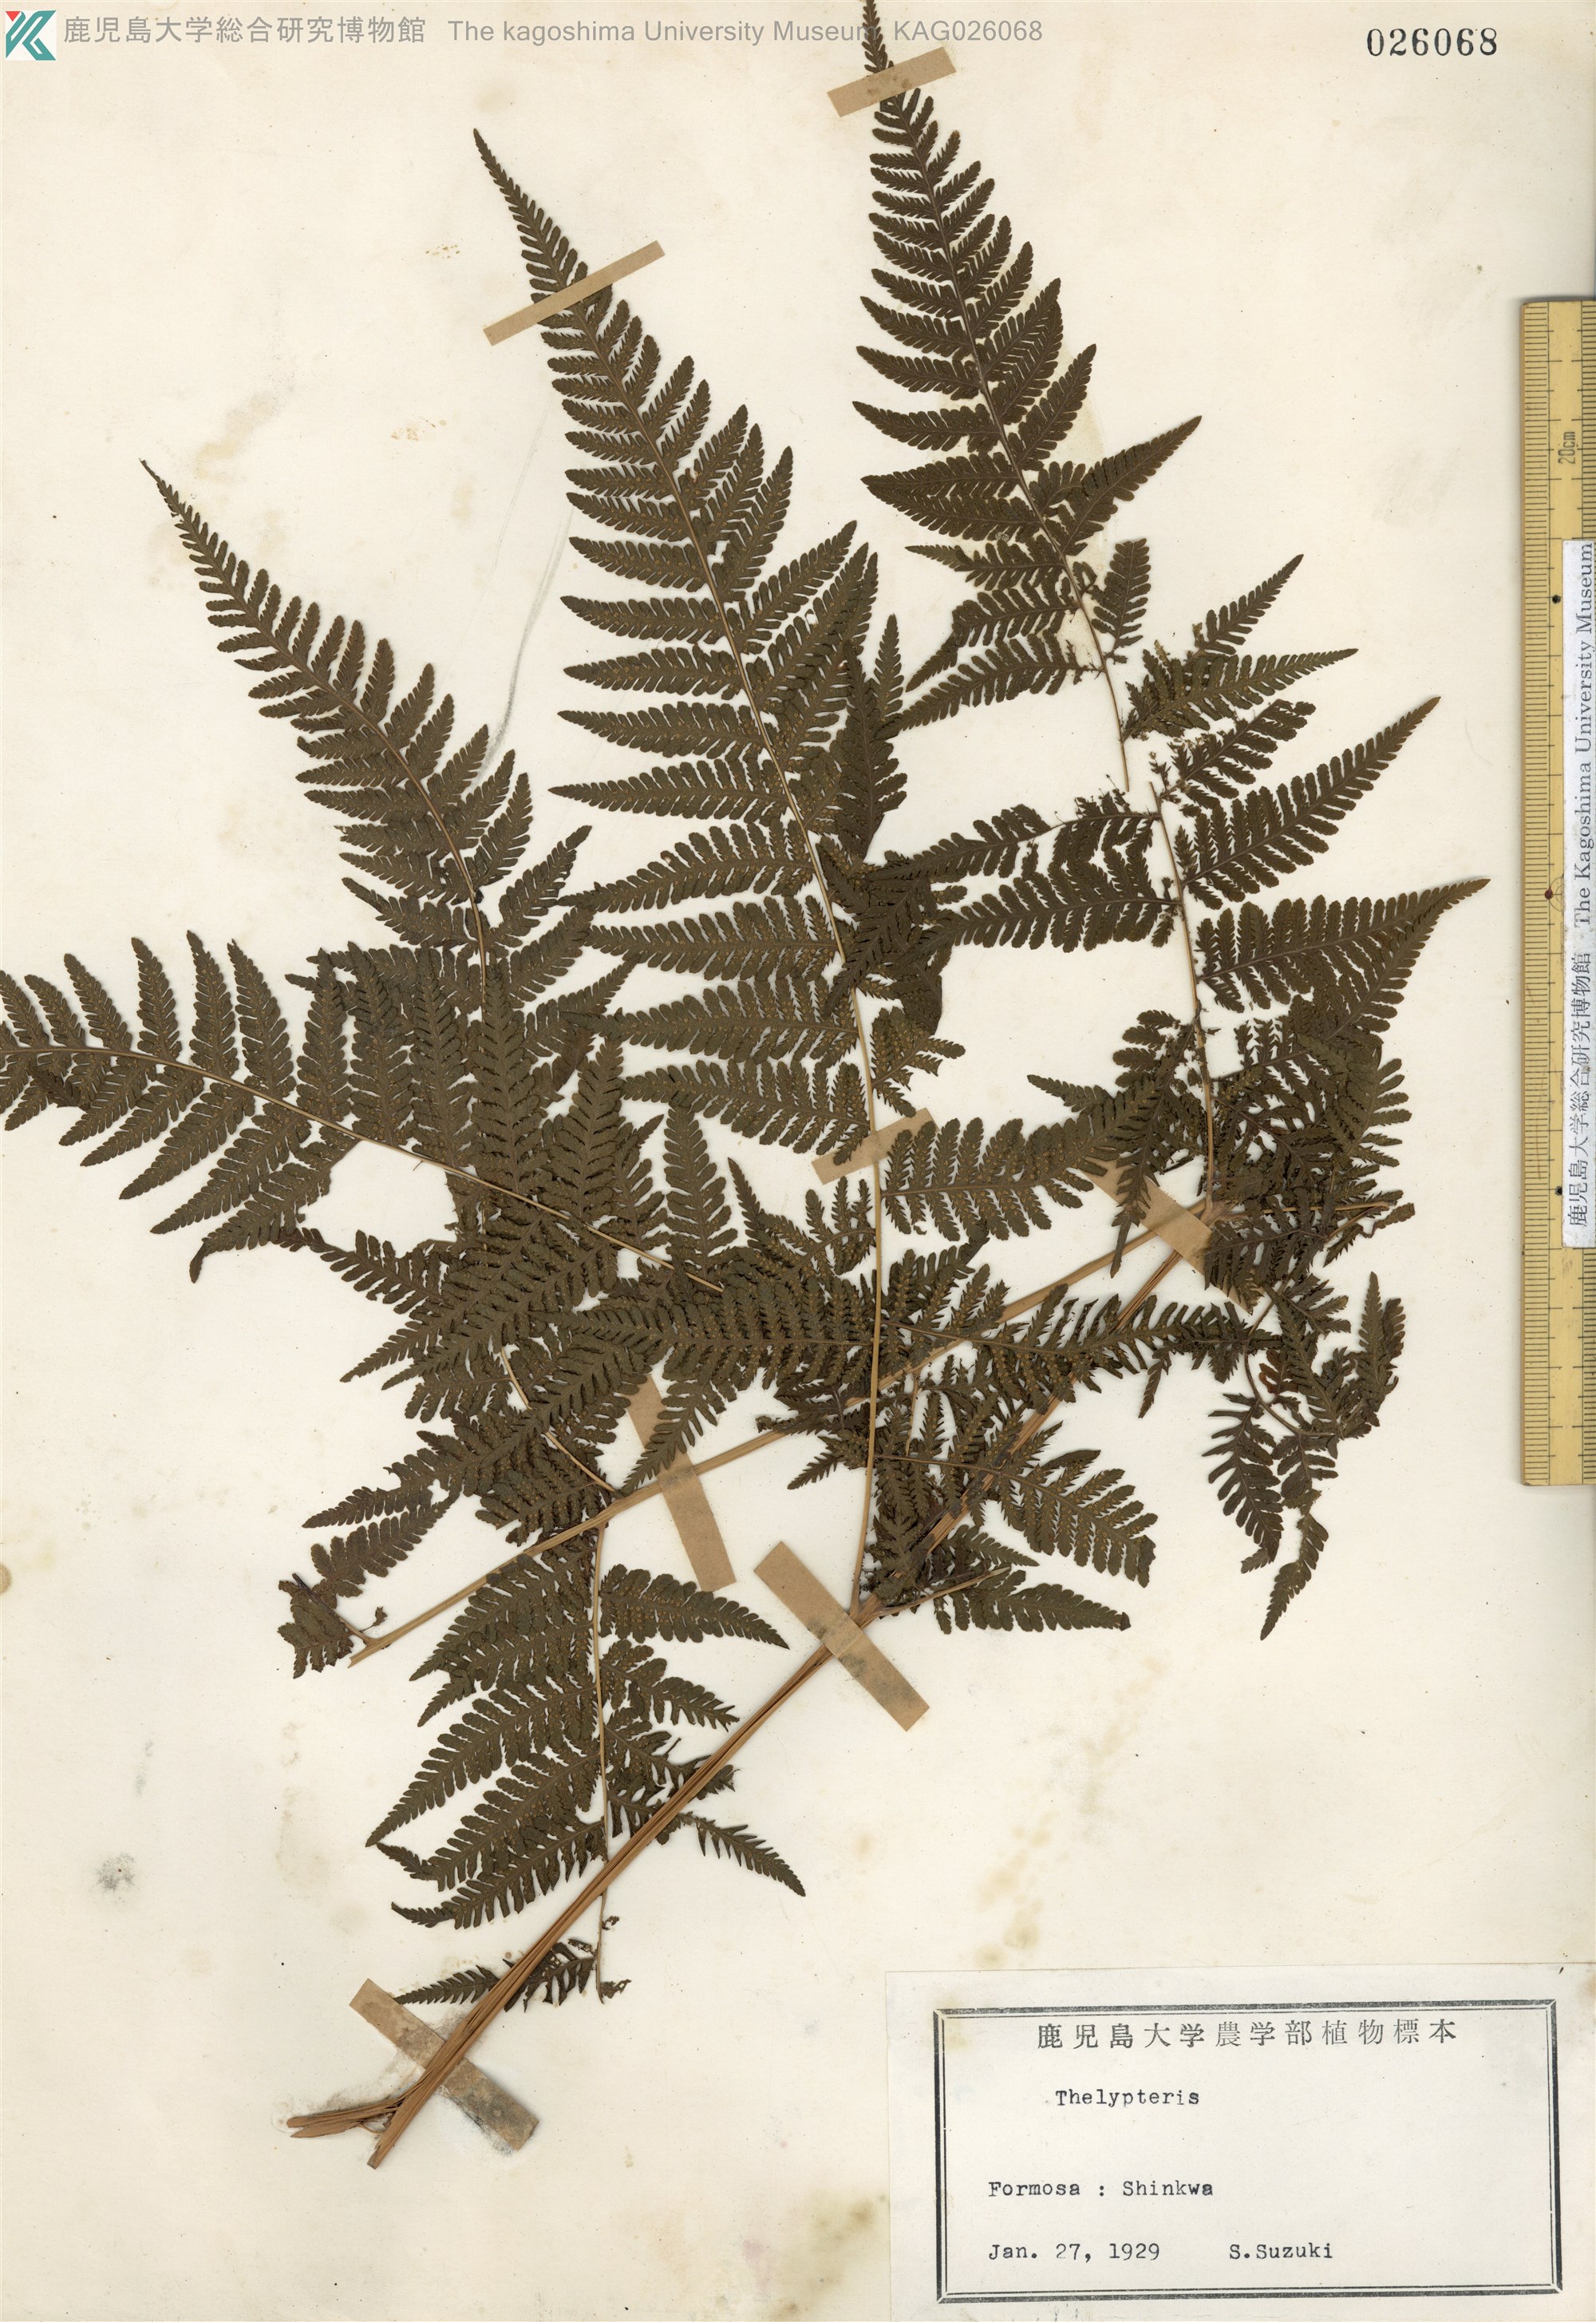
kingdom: Plantae
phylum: Tracheophyta
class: Polypodiopsida
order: Polypodiales
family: Thelypteridaceae
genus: Macrothelypteris
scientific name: Macrothelypteris oligophlebia
